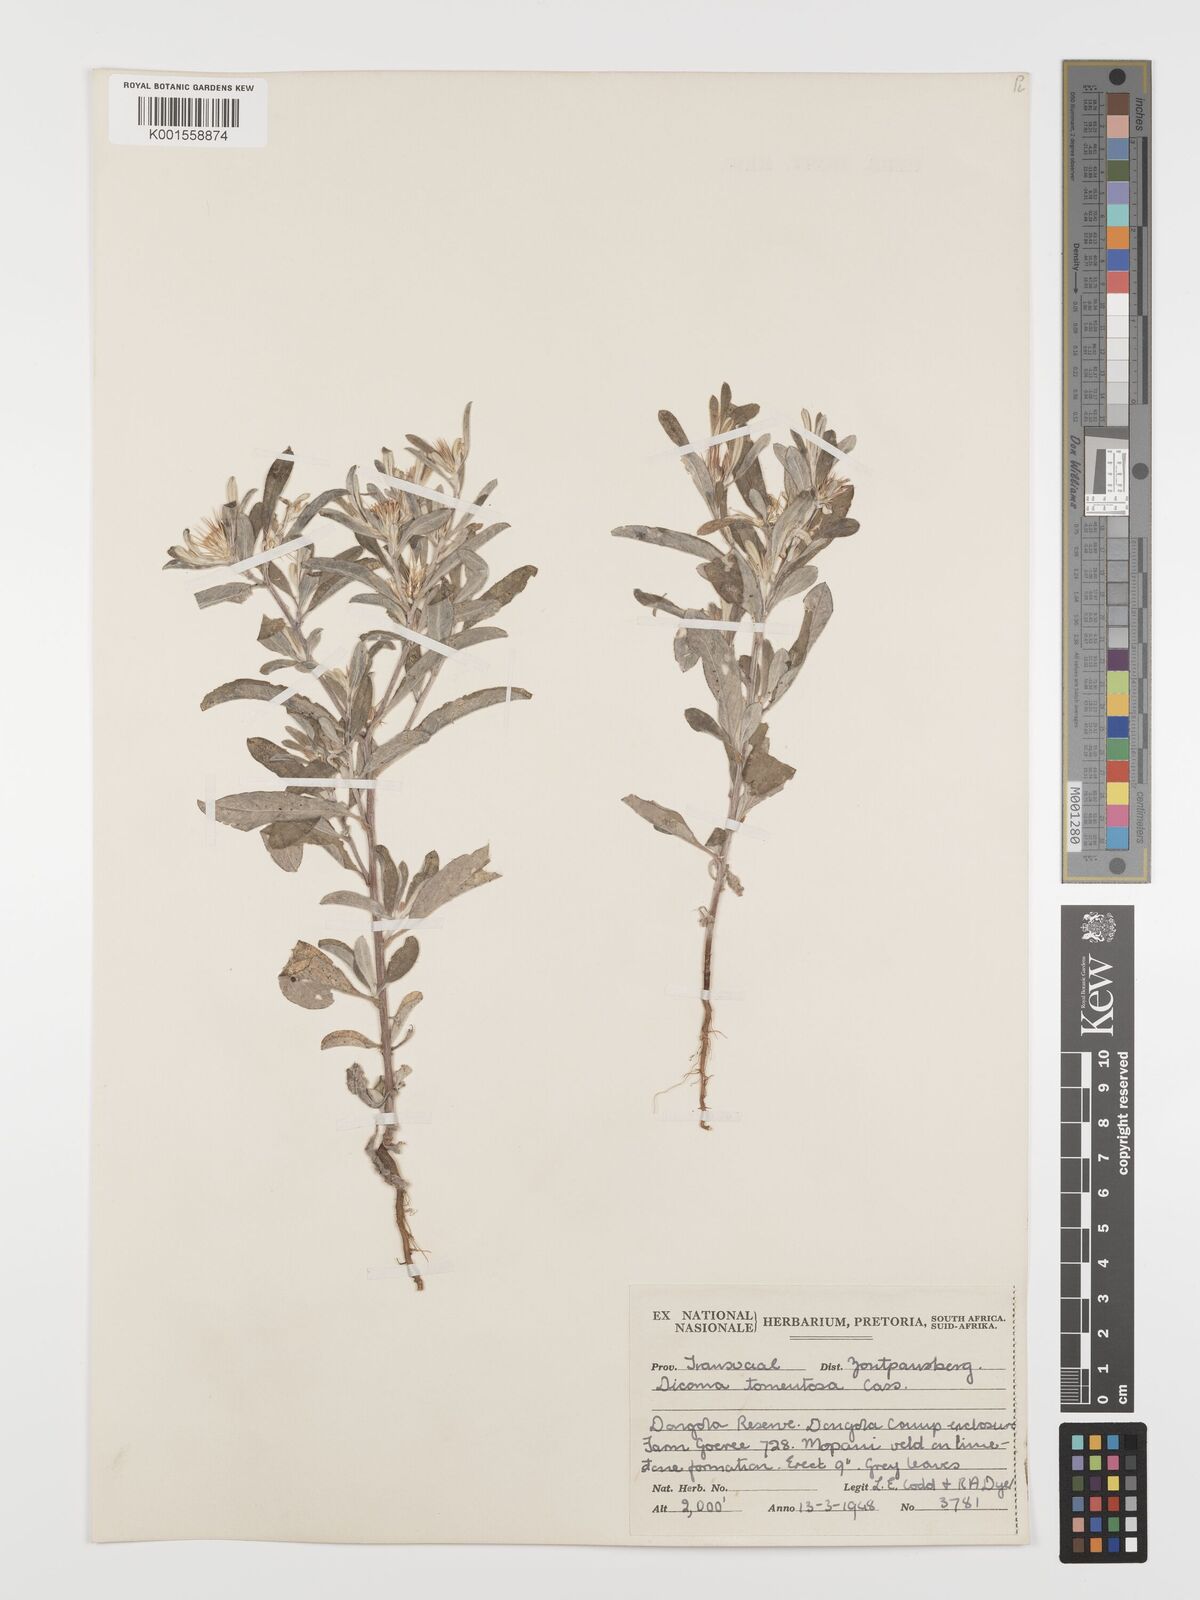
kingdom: Plantae
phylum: Tracheophyta
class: Magnoliopsida
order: Asterales
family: Asteraceae
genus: Dicoma
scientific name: Dicoma tomentosa
